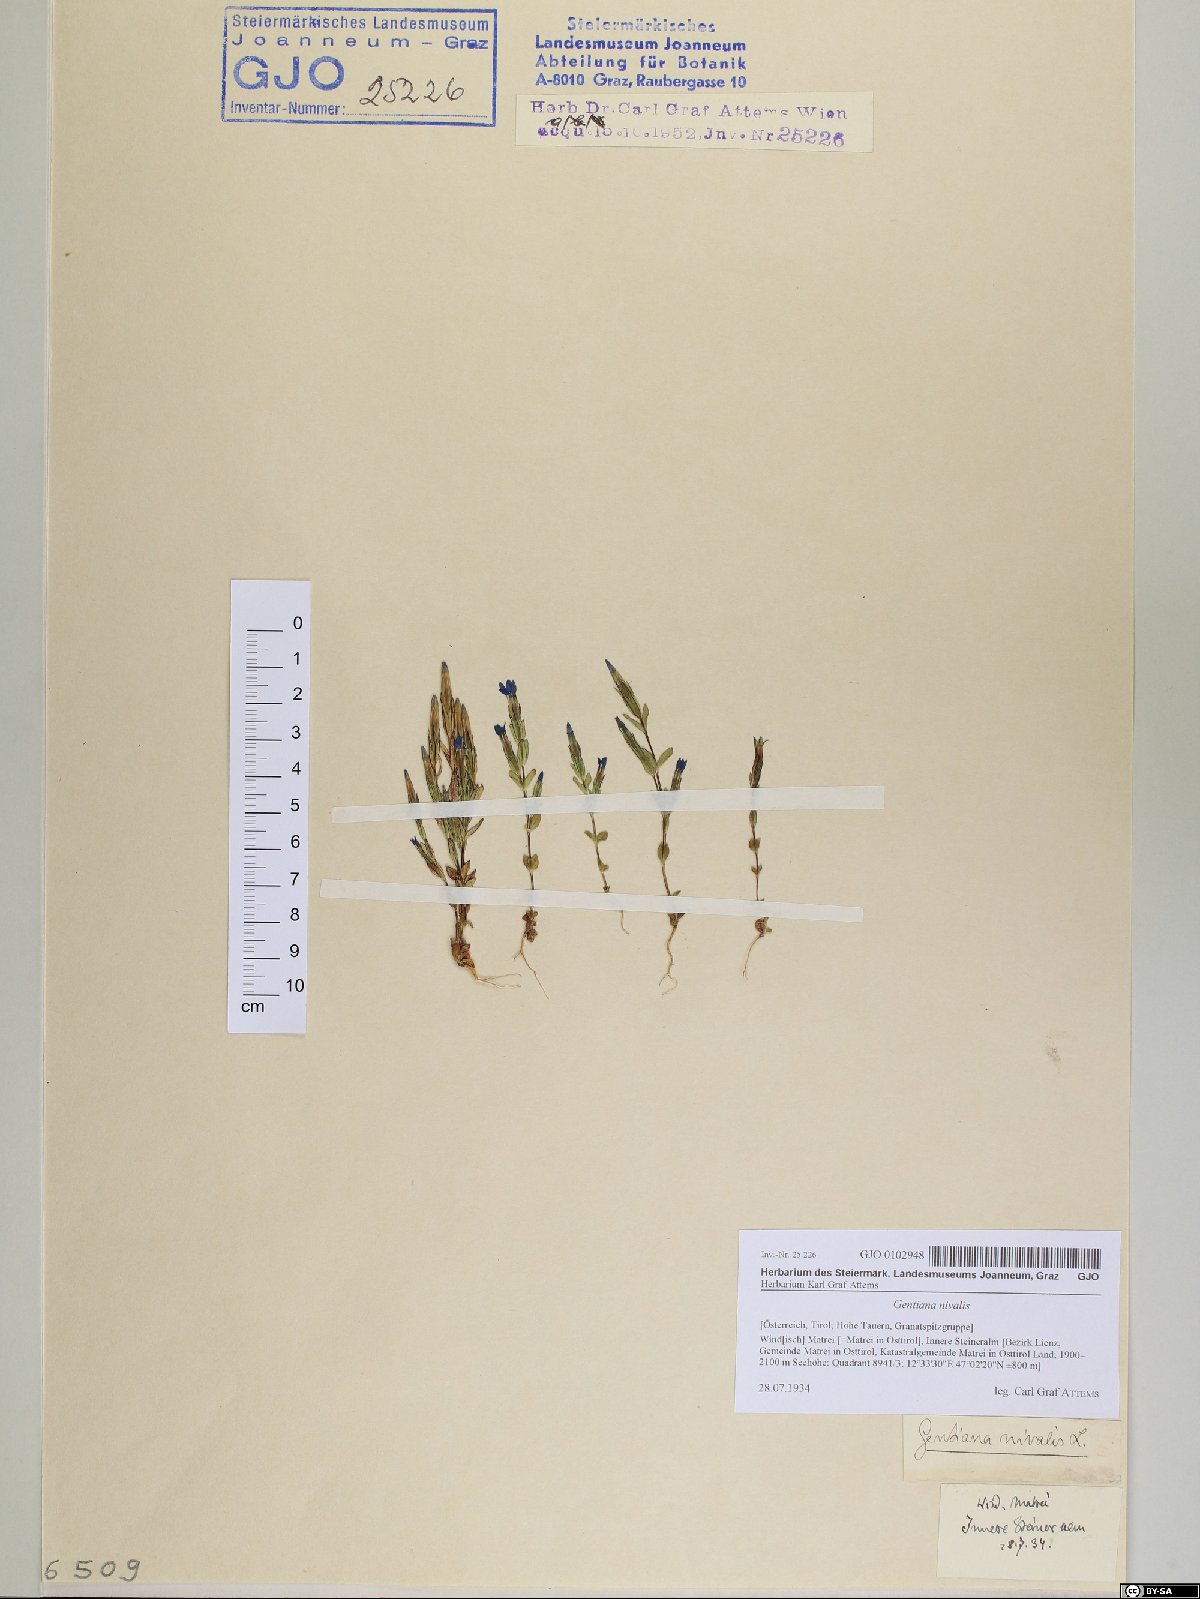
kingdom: Plantae
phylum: Tracheophyta
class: Magnoliopsida
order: Gentianales
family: Gentianaceae
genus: Gentiana
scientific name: Gentiana nivalis
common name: Alpine gentian
